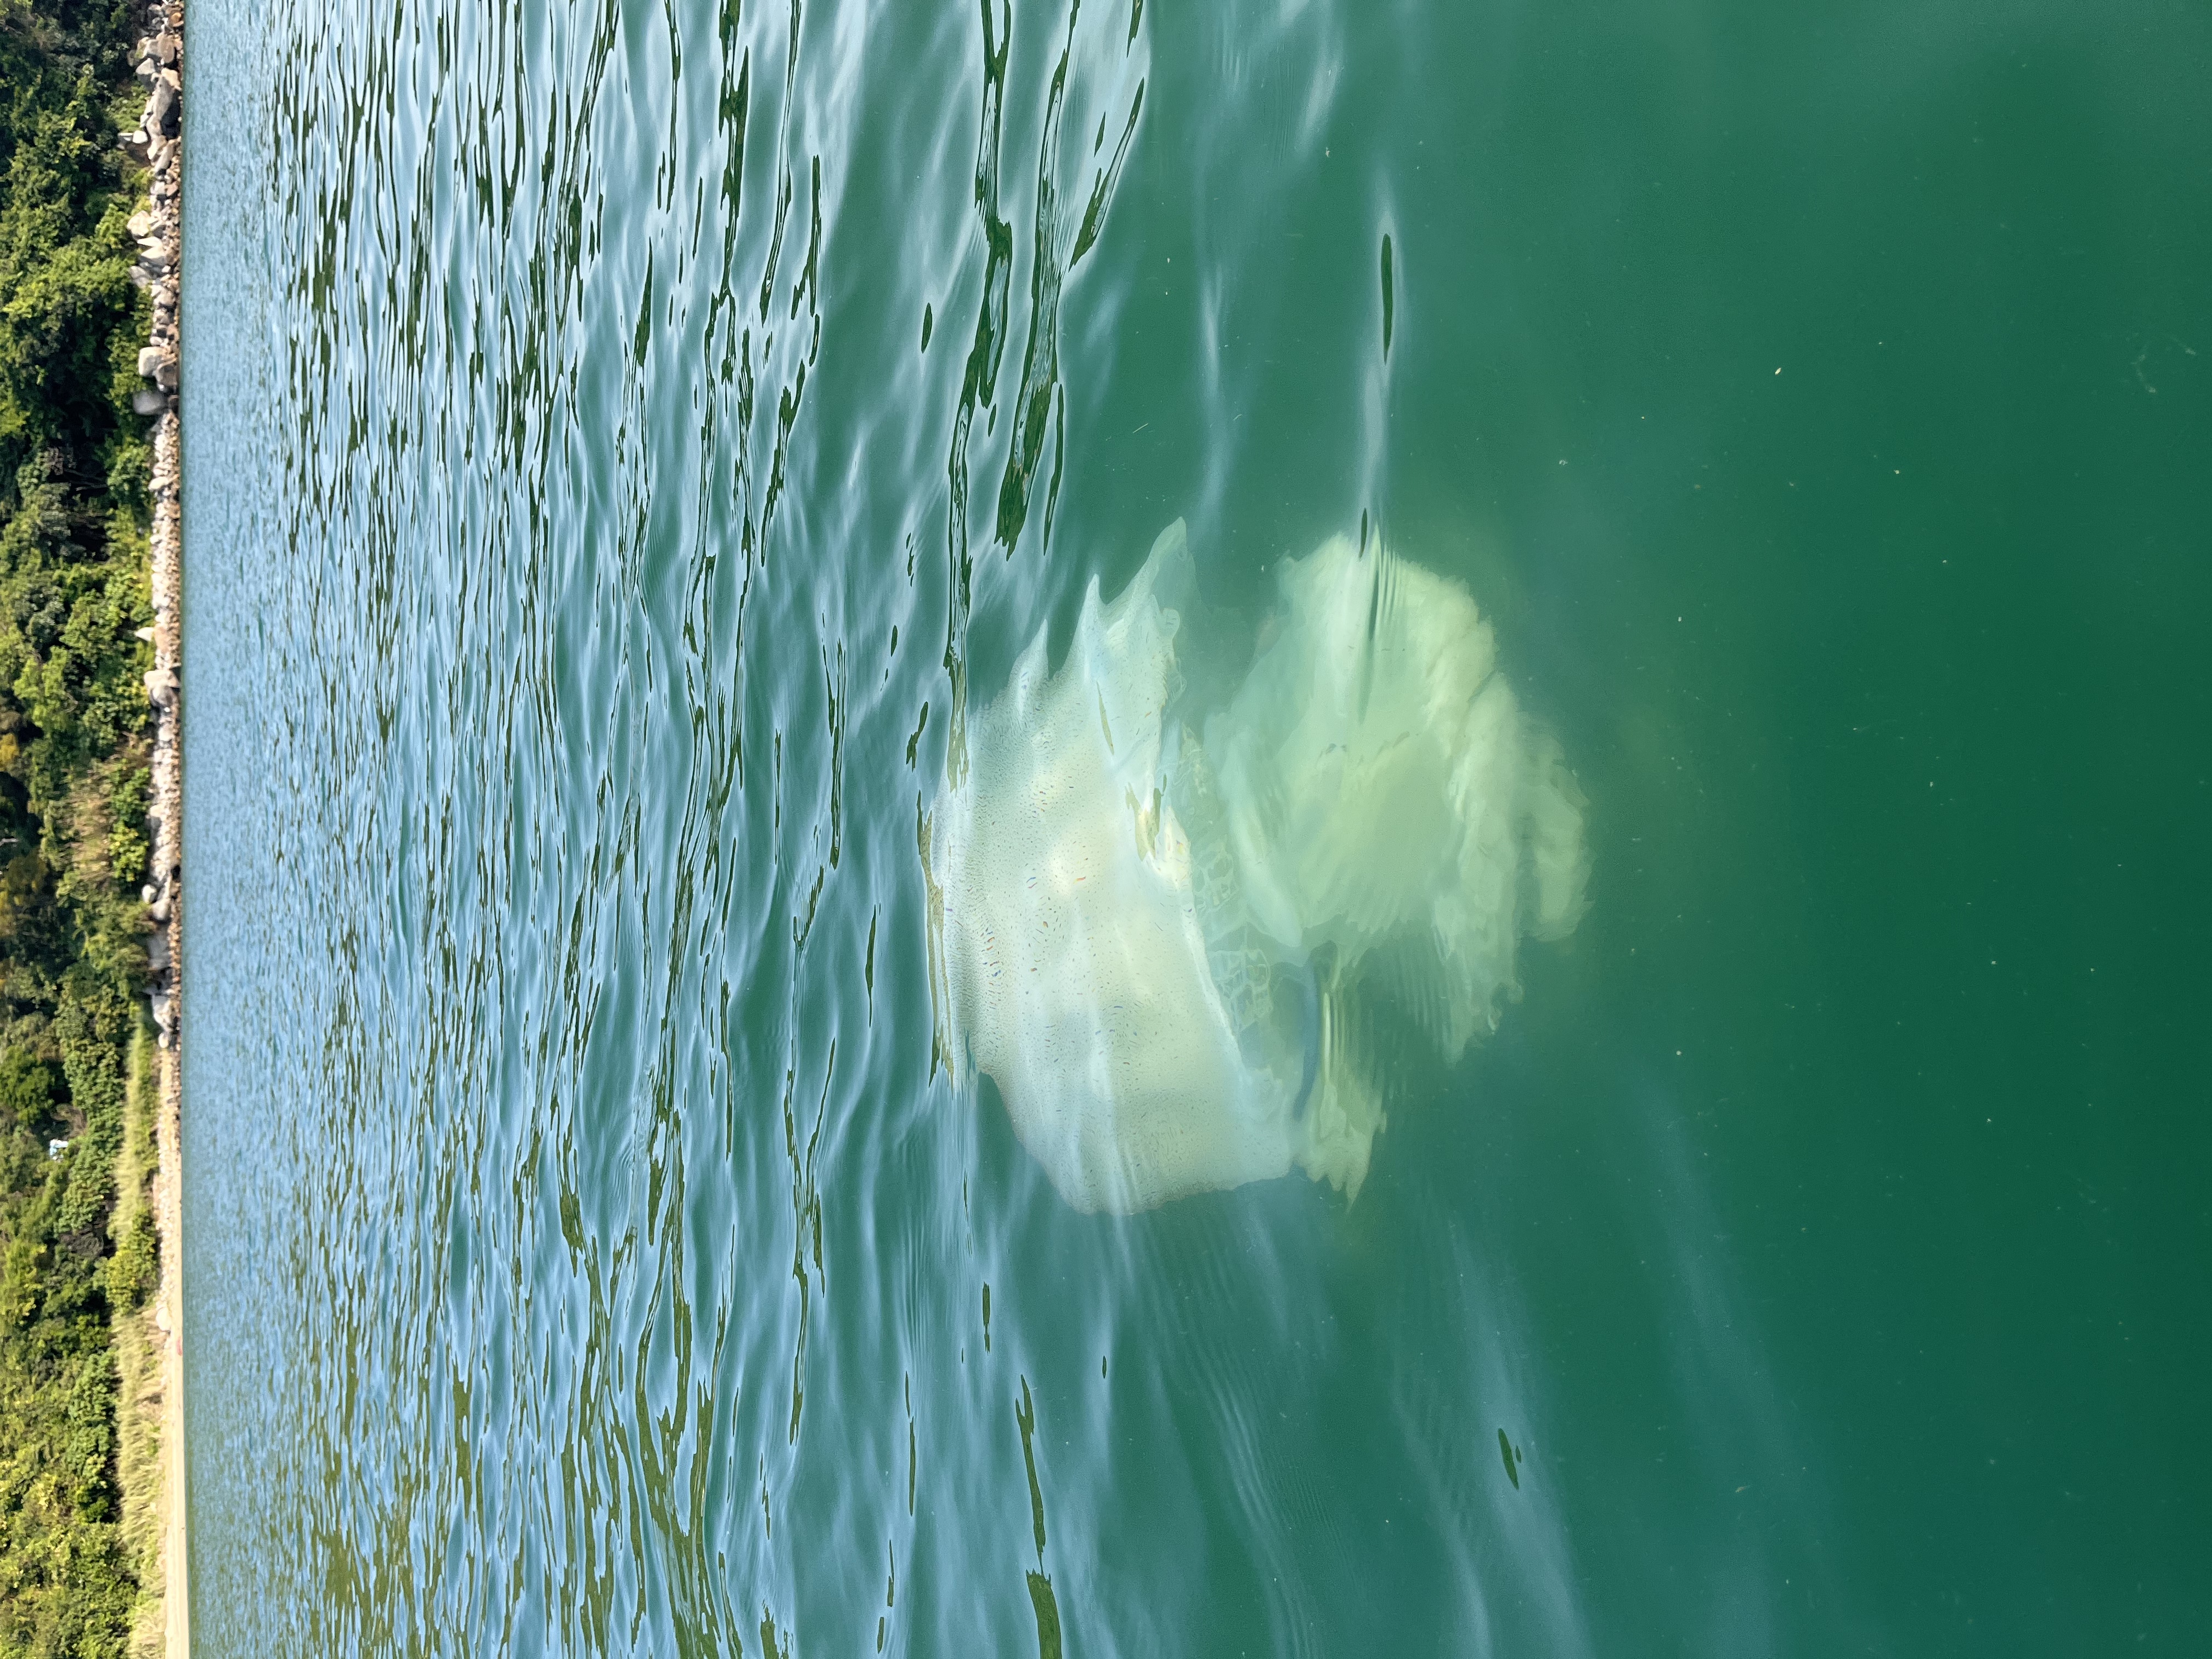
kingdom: Animalia
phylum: Cnidaria
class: Scyphozoa
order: Rhizostomeae
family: Rhizostomatidae
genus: Rhopilema
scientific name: Rhopilema hispidum
